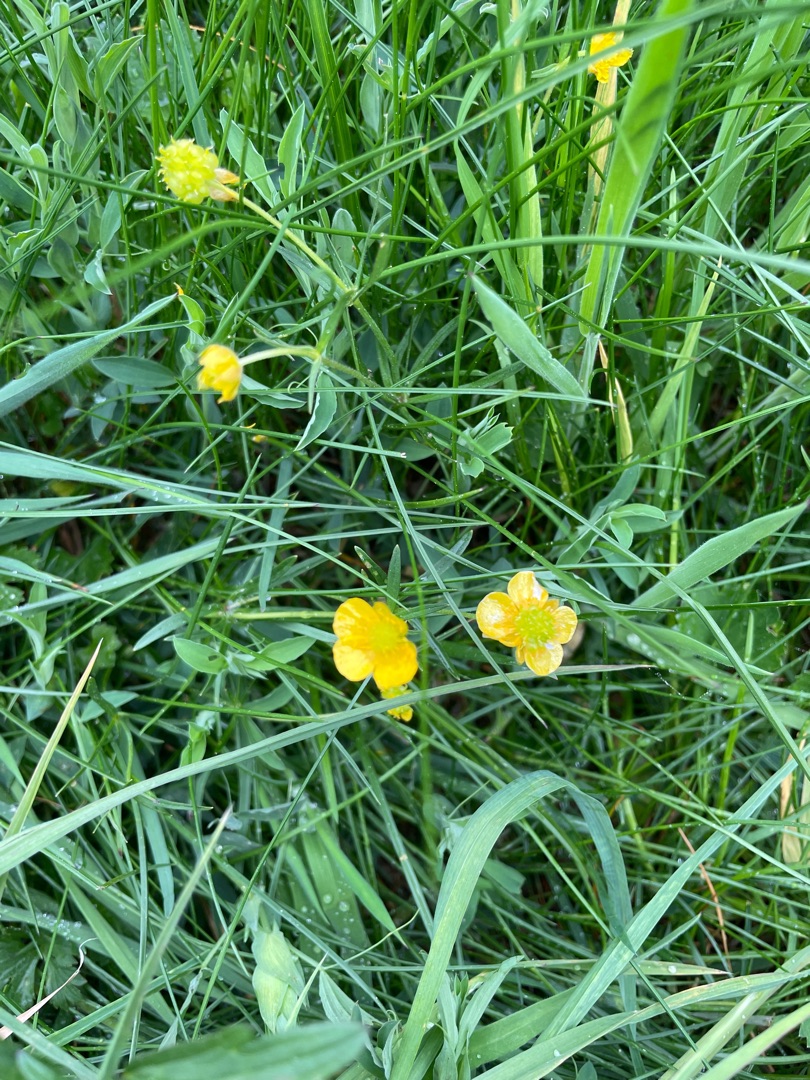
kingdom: Plantae
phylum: Tracheophyta
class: Magnoliopsida
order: Ranunculales
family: Ranunculaceae
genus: Ranunculus
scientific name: Ranunculus
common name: Ranunkelslægten
